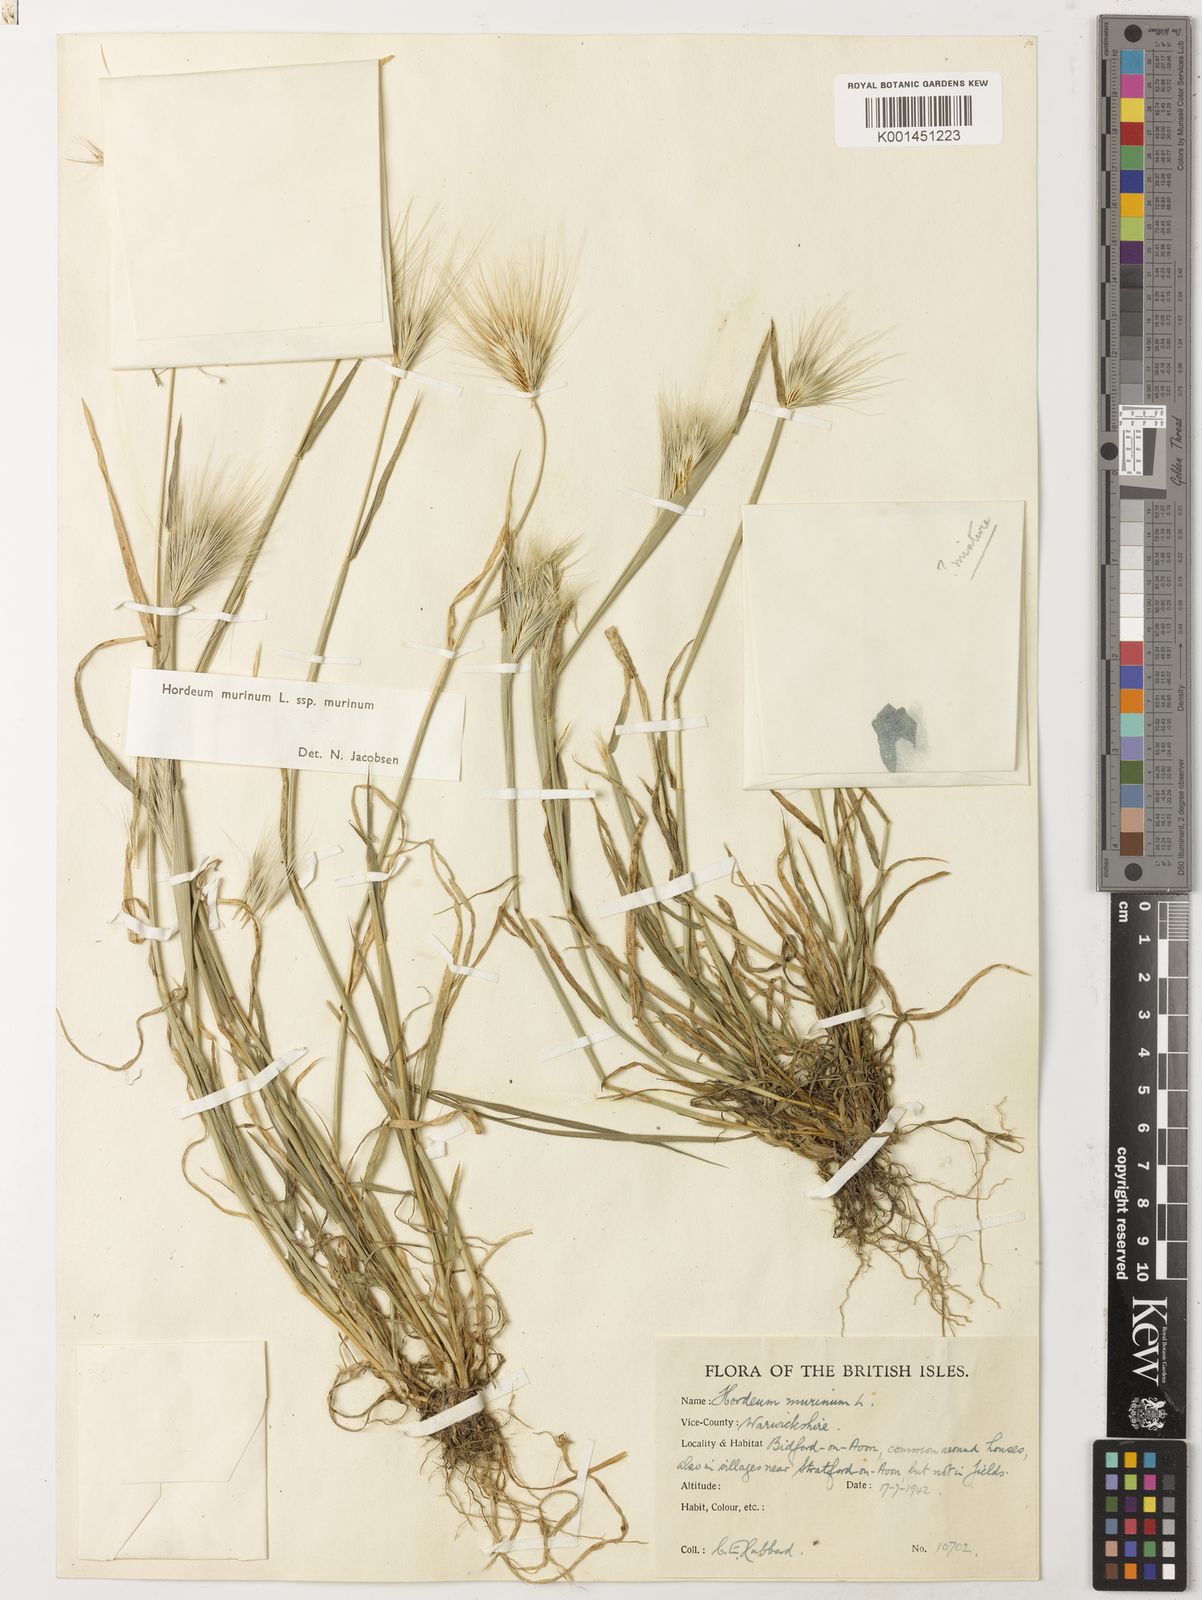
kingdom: Plantae
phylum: Tracheophyta
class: Liliopsida
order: Poales
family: Poaceae
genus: Hordeum
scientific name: Hordeum murinum
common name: Wall barley
